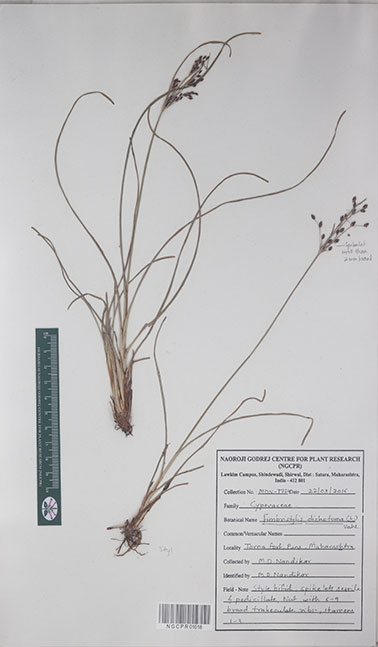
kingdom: Plantae
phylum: Tracheophyta
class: Liliopsida
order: Poales
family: Cyperaceae
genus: Fimbristylis
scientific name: Fimbristylis dichotoma
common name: Forked fimbry
